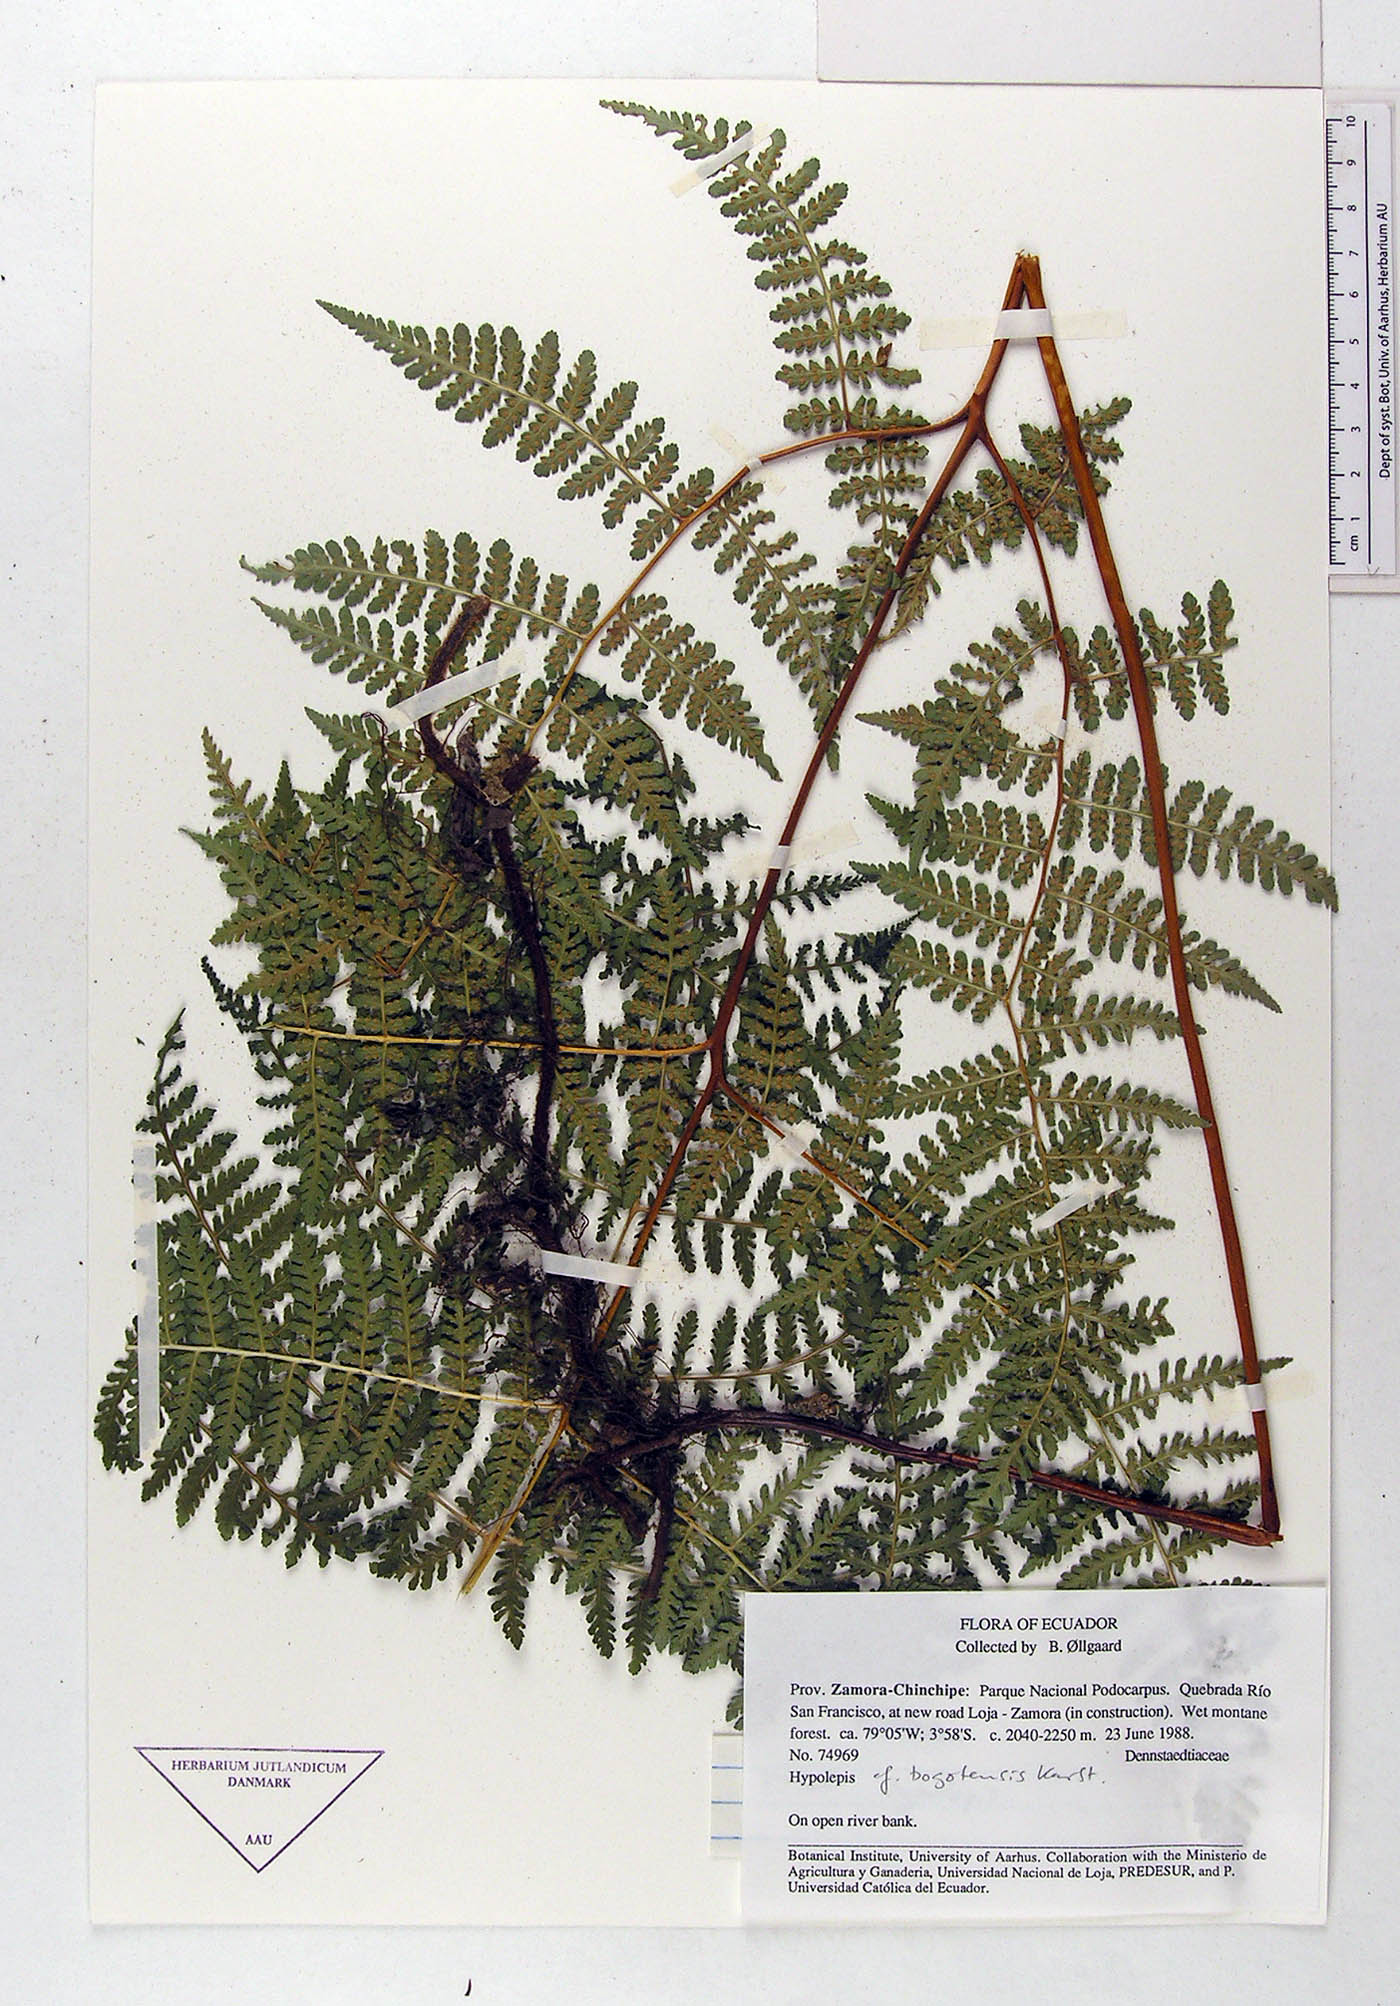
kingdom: Plantae
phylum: Tracheophyta
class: Polypodiopsida
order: Polypodiales
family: Dennstaedtiaceae
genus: Hypolepis
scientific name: Hypolepis bogotensis
